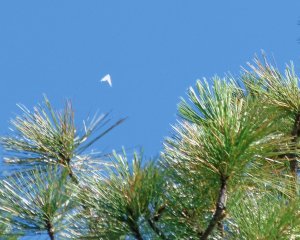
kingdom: Animalia
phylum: Arthropoda
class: Insecta
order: Lepidoptera
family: Pieridae
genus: Neophasia
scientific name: Neophasia menapia
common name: Pine White
